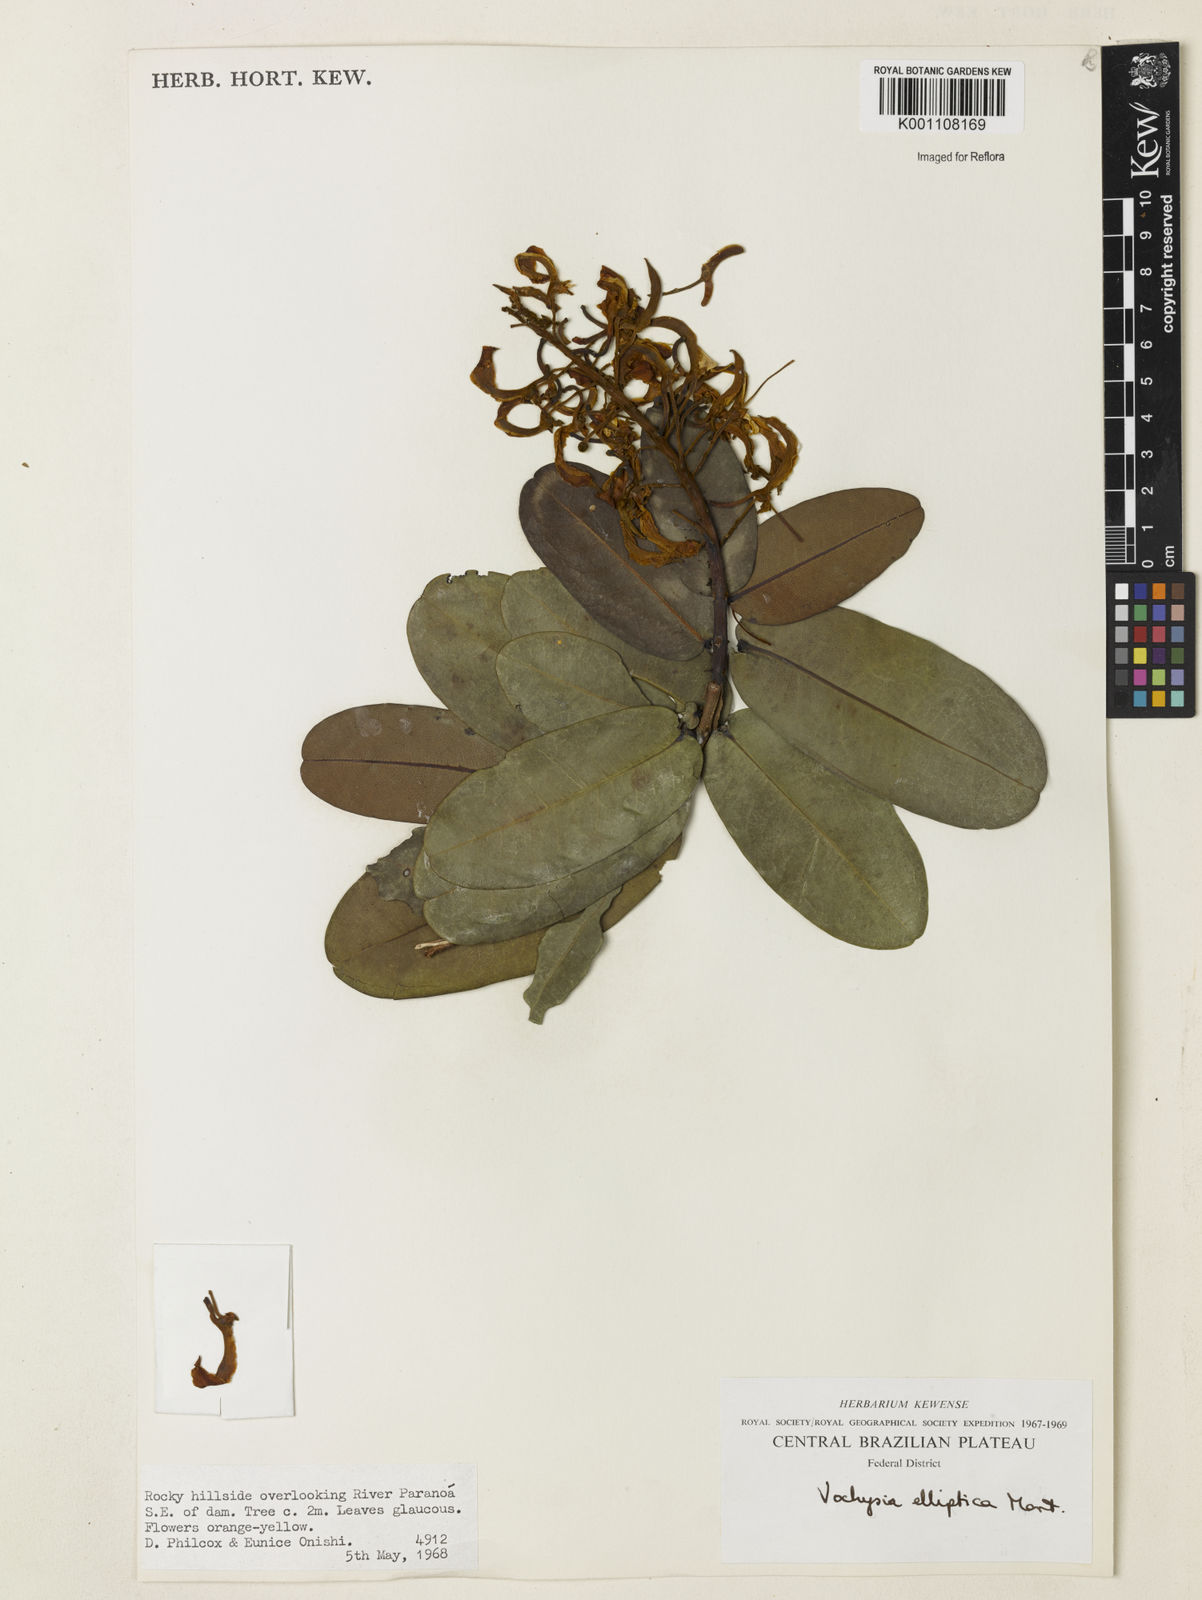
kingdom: Plantae
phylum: Tracheophyta
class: Magnoliopsida
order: Myrtales
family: Vochysiaceae
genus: Vochysia
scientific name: Vochysia elliptica
